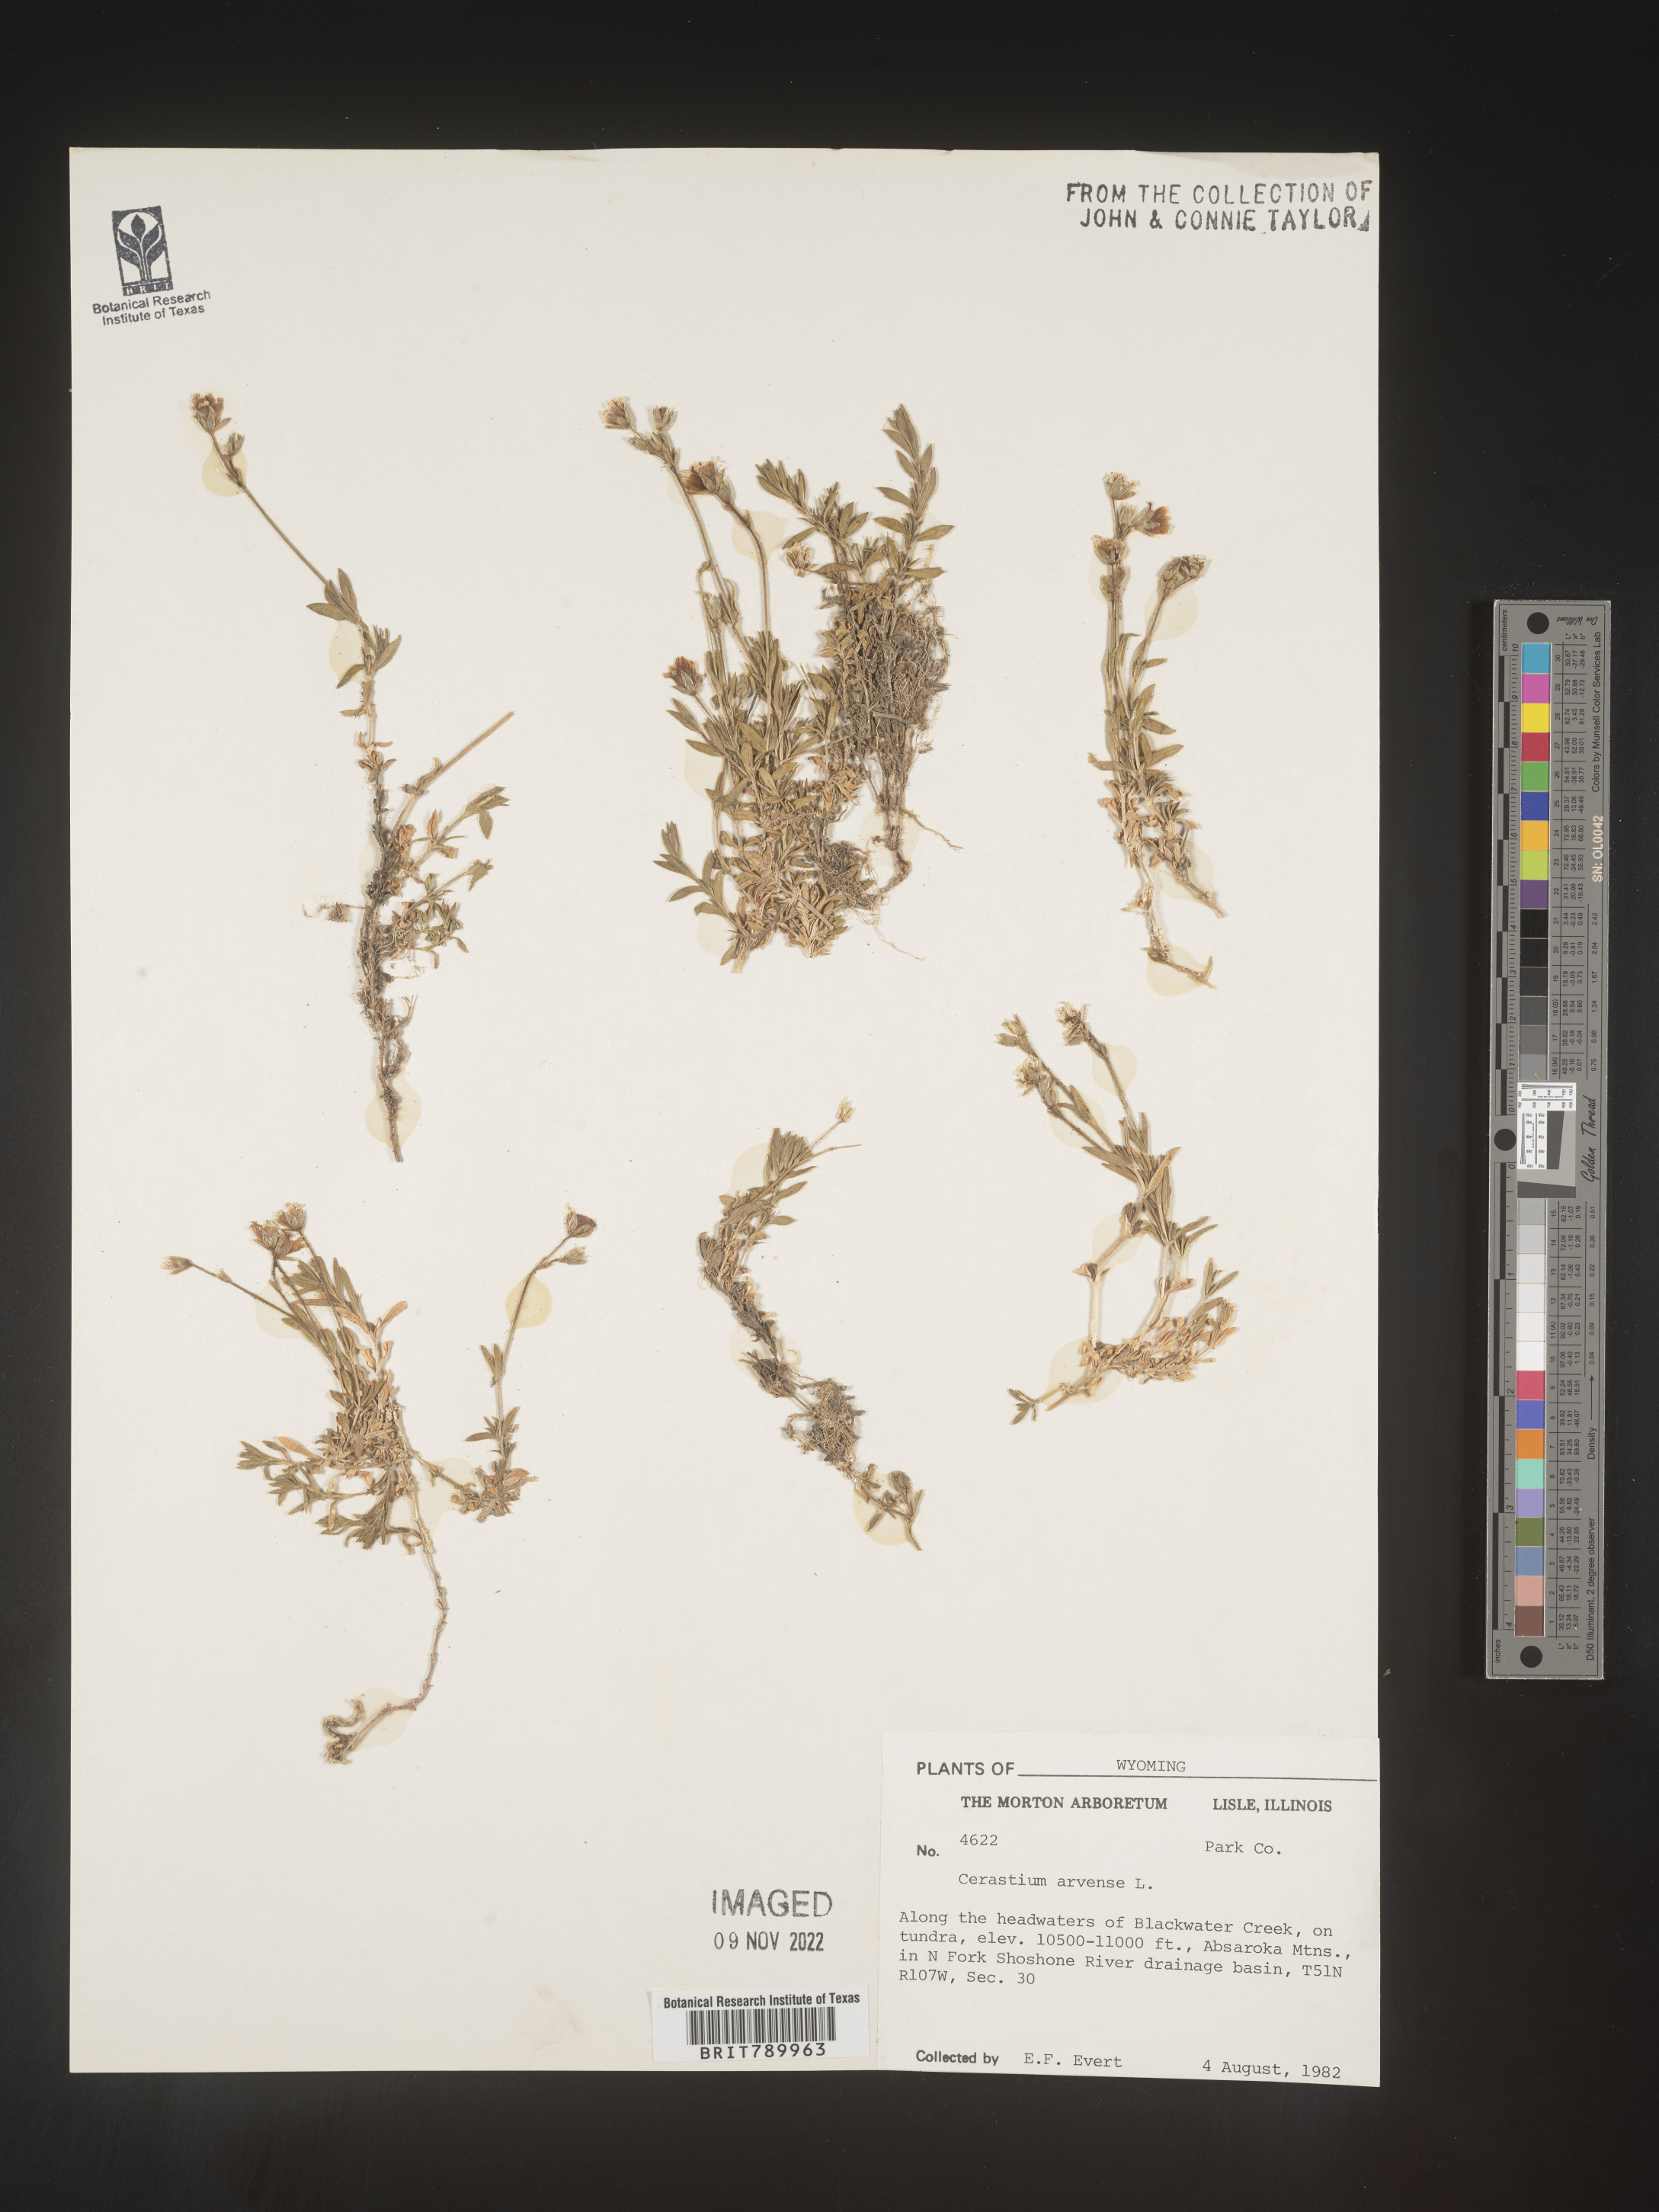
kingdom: Plantae
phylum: Tracheophyta
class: Magnoliopsida
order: Caryophyllales
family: Caryophyllaceae
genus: Cerastium
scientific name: Cerastium arvense
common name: Field mouse-ear
